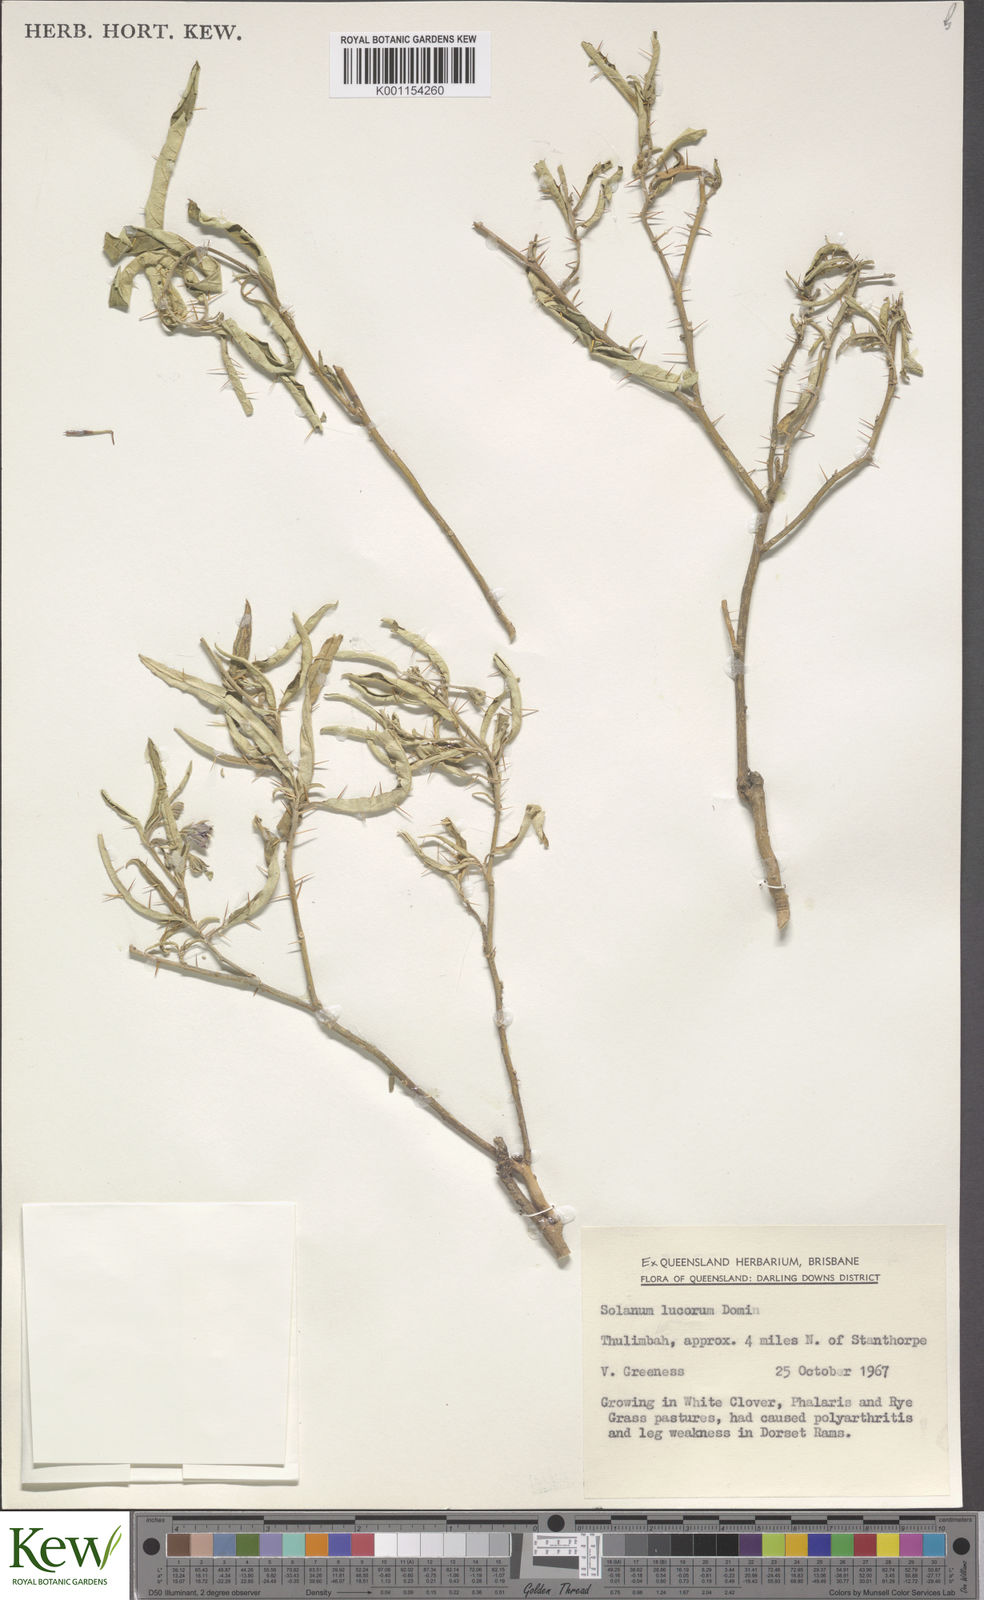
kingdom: Plantae
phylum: Tracheophyta
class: Magnoliopsida
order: Solanales
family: Solanaceae
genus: Solanum
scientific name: Solanum stelligerum
